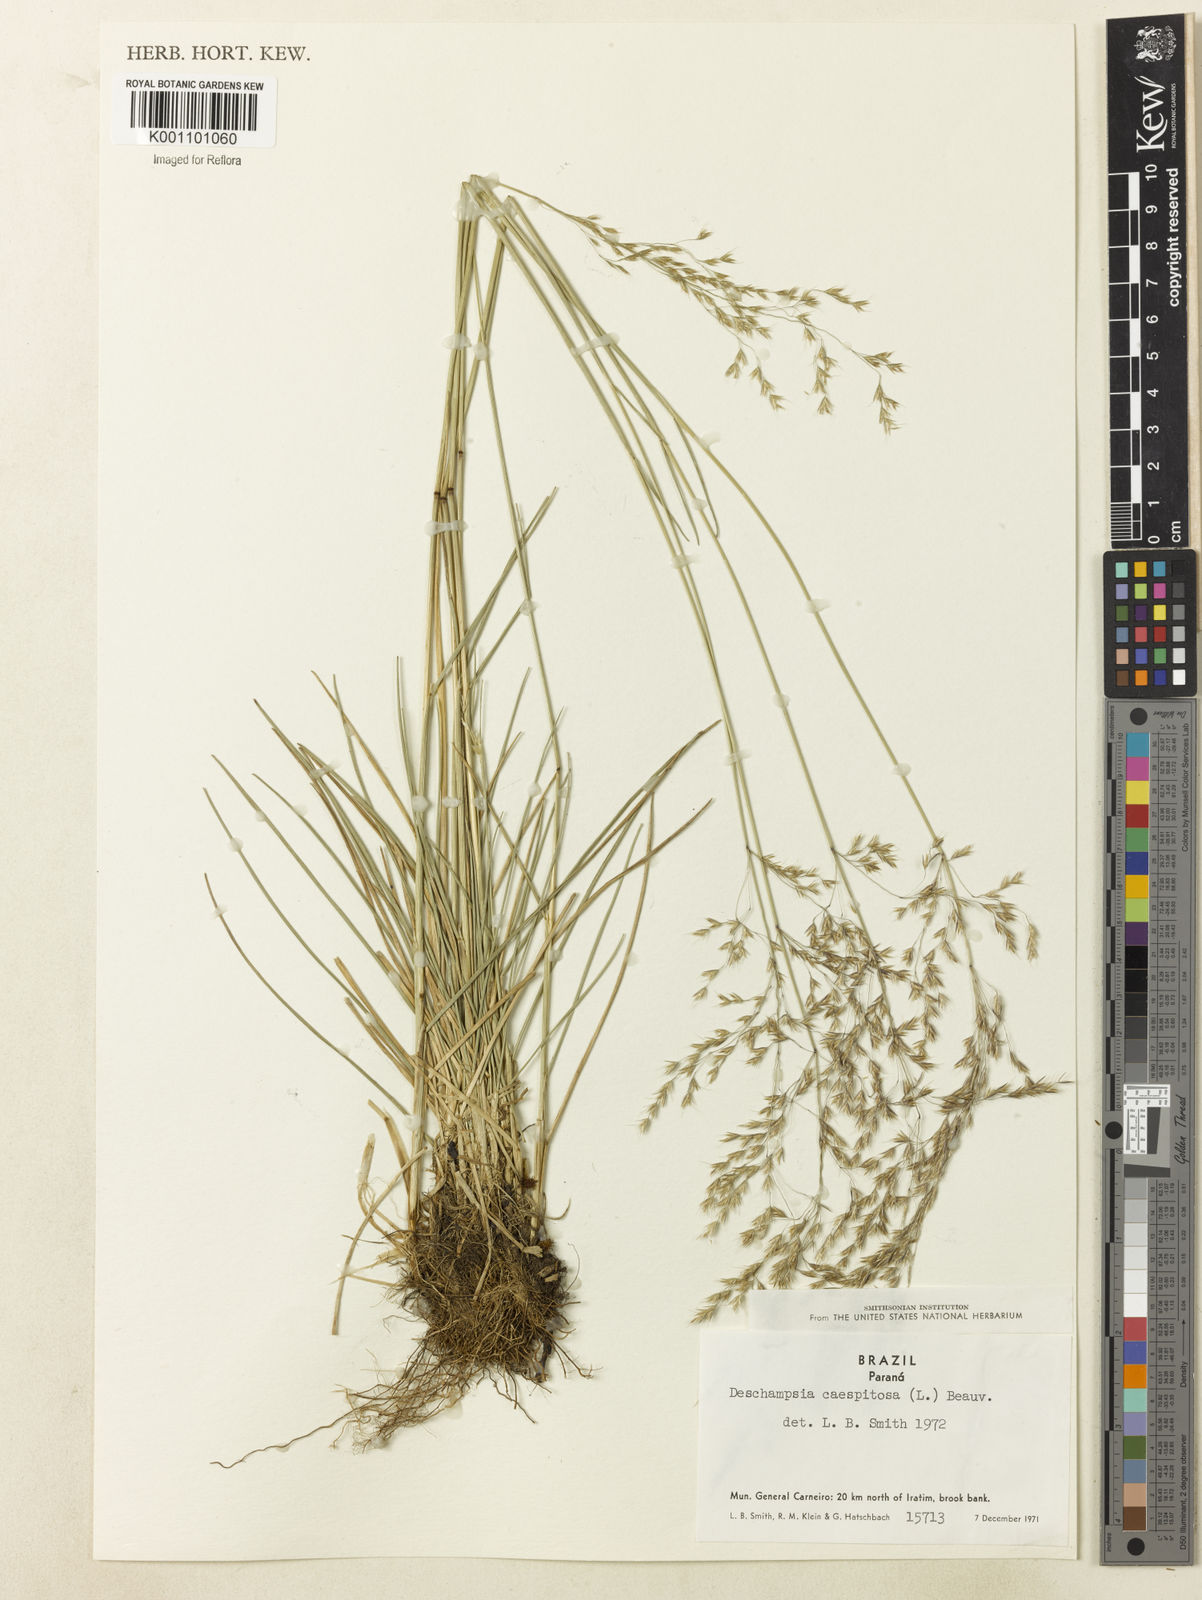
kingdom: Plantae
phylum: Tracheophyta
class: Liliopsida
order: Poales
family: Poaceae
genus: Deschampsia
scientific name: Deschampsia
